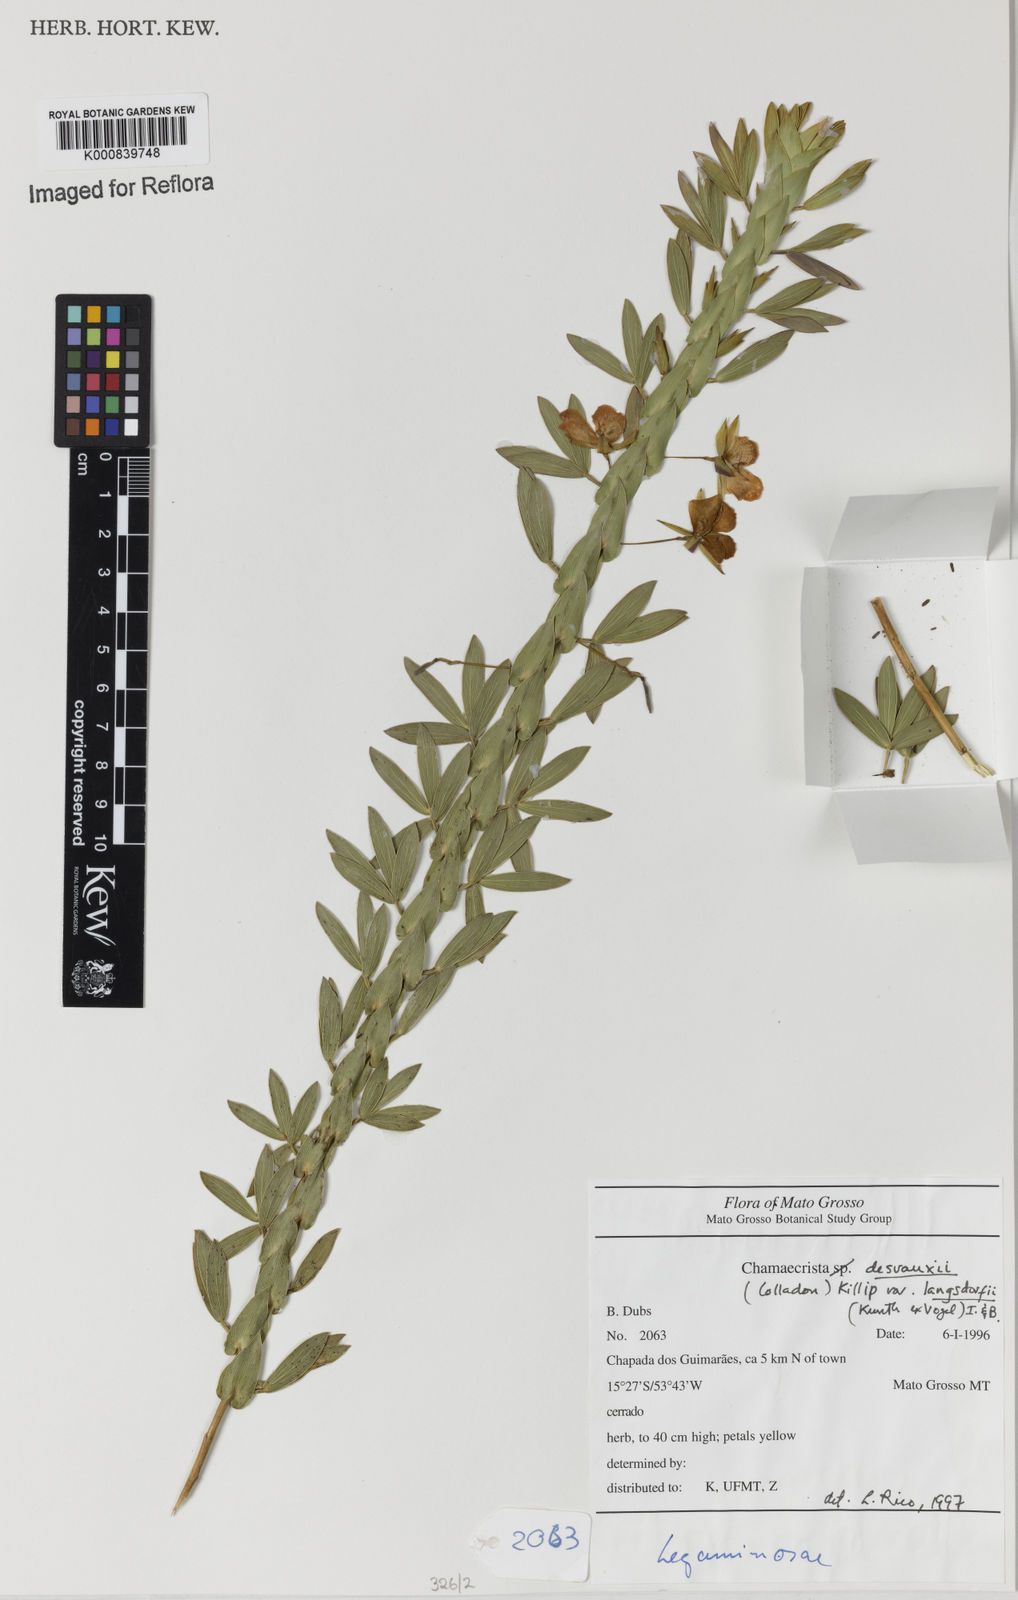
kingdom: Plantae
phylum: Tracheophyta
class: Magnoliopsida
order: Fabales
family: Fabaceae
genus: Chamaecrista
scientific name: Chamaecrista langsdorffii
